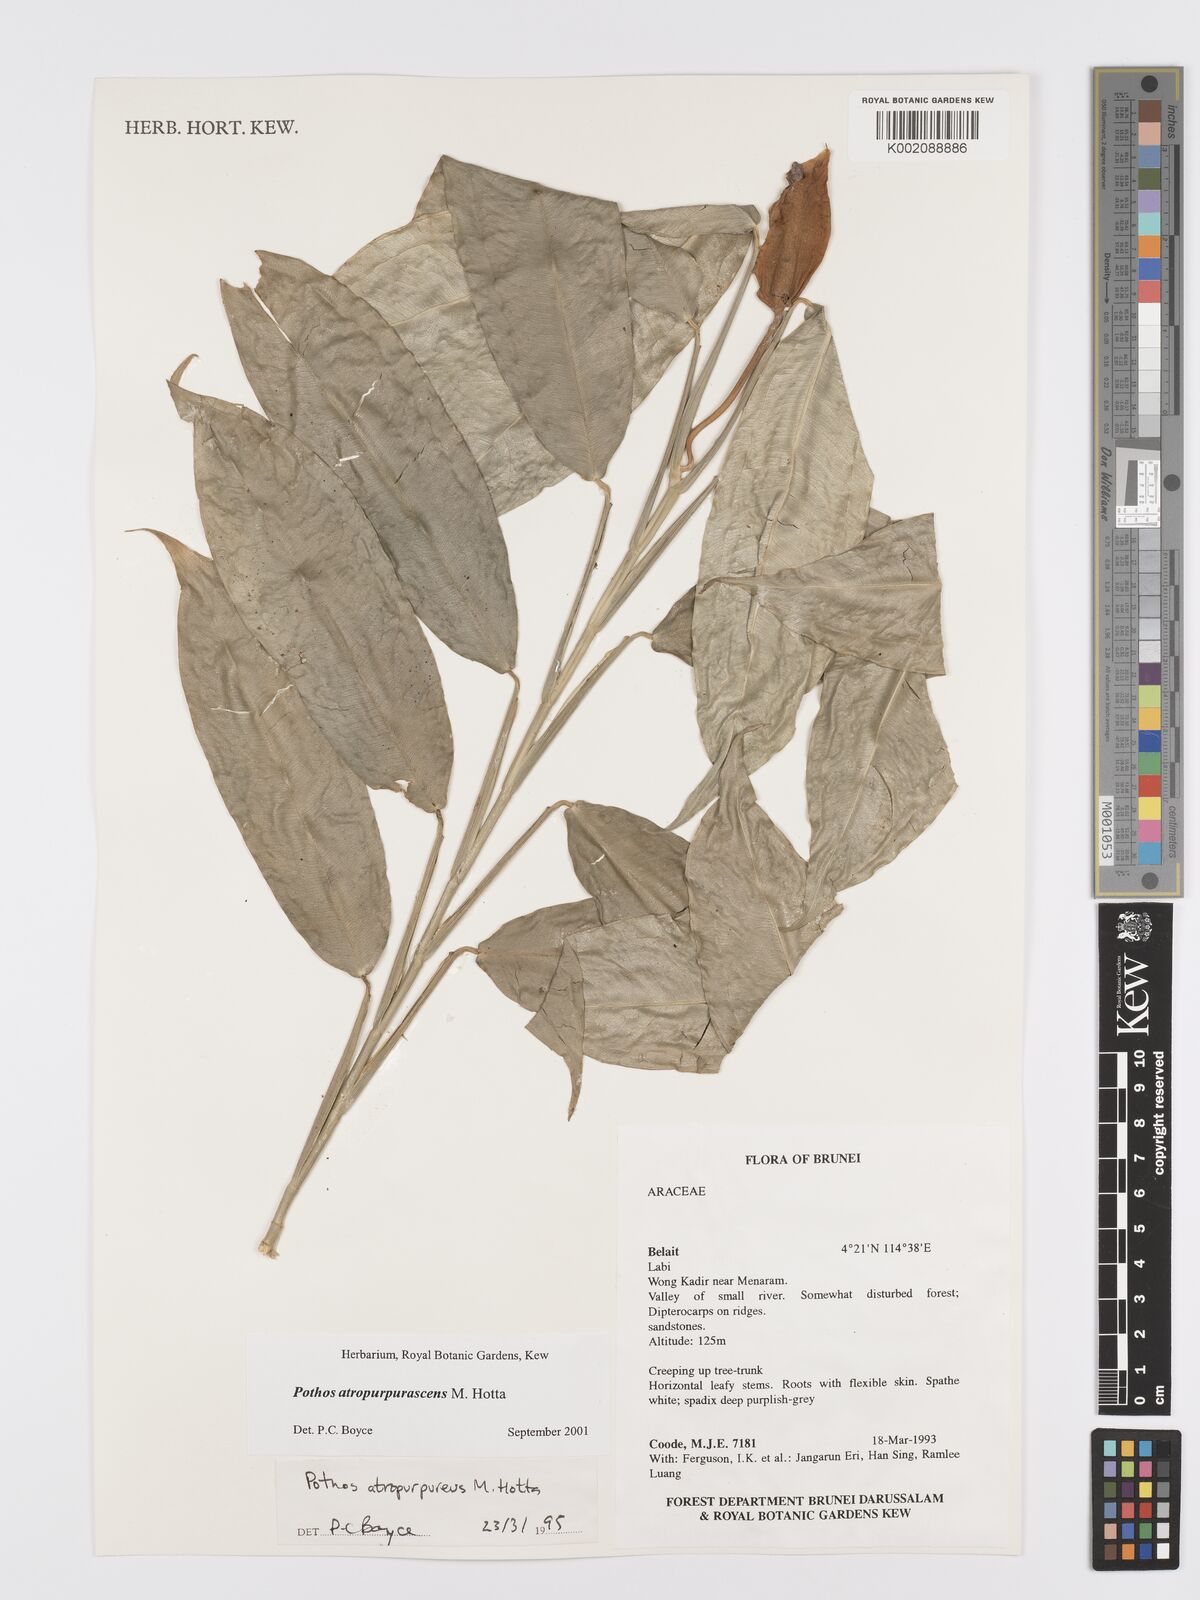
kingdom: Plantae
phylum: Tracheophyta
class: Liliopsida
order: Alismatales
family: Araceae
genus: Pothos
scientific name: Pothos atropurpurascens
